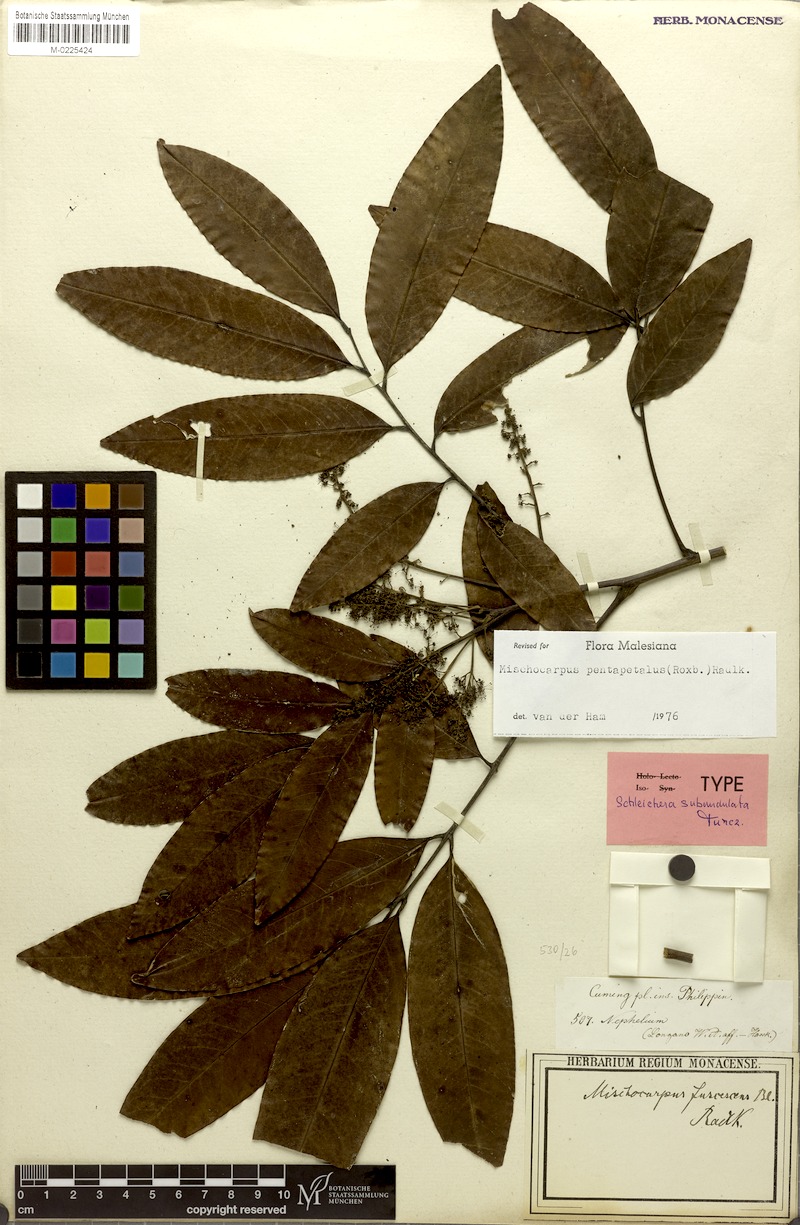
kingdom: Plantae
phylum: Tracheophyta
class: Magnoliopsida
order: Sapindales
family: Sapindaceae
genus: Mischocarpus
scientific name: Mischocarpus pentapetalus
